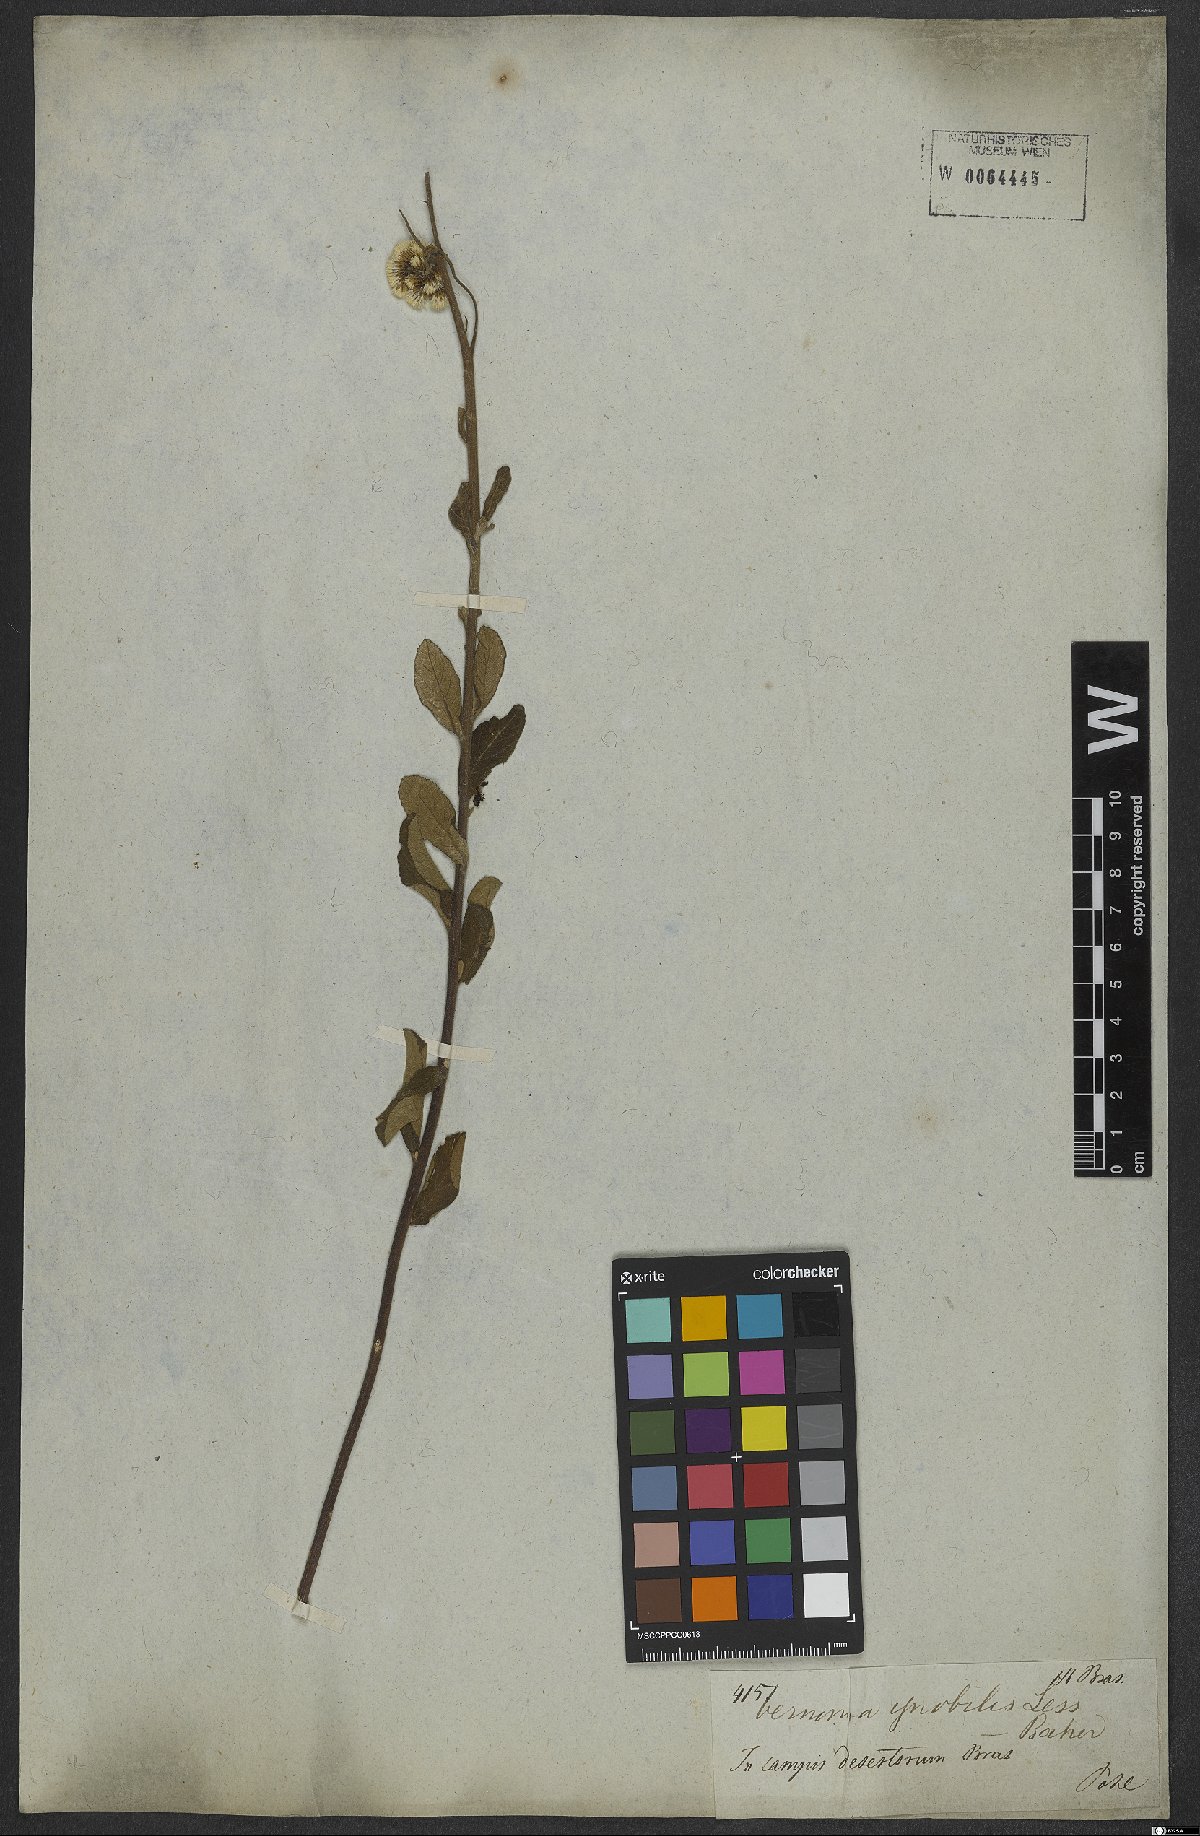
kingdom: Plantae
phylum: Tracheophyta
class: Magnoliopsida
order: Asterales
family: Asteraceae
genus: Vernonanthura
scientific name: Vernonanthura ignobilis
